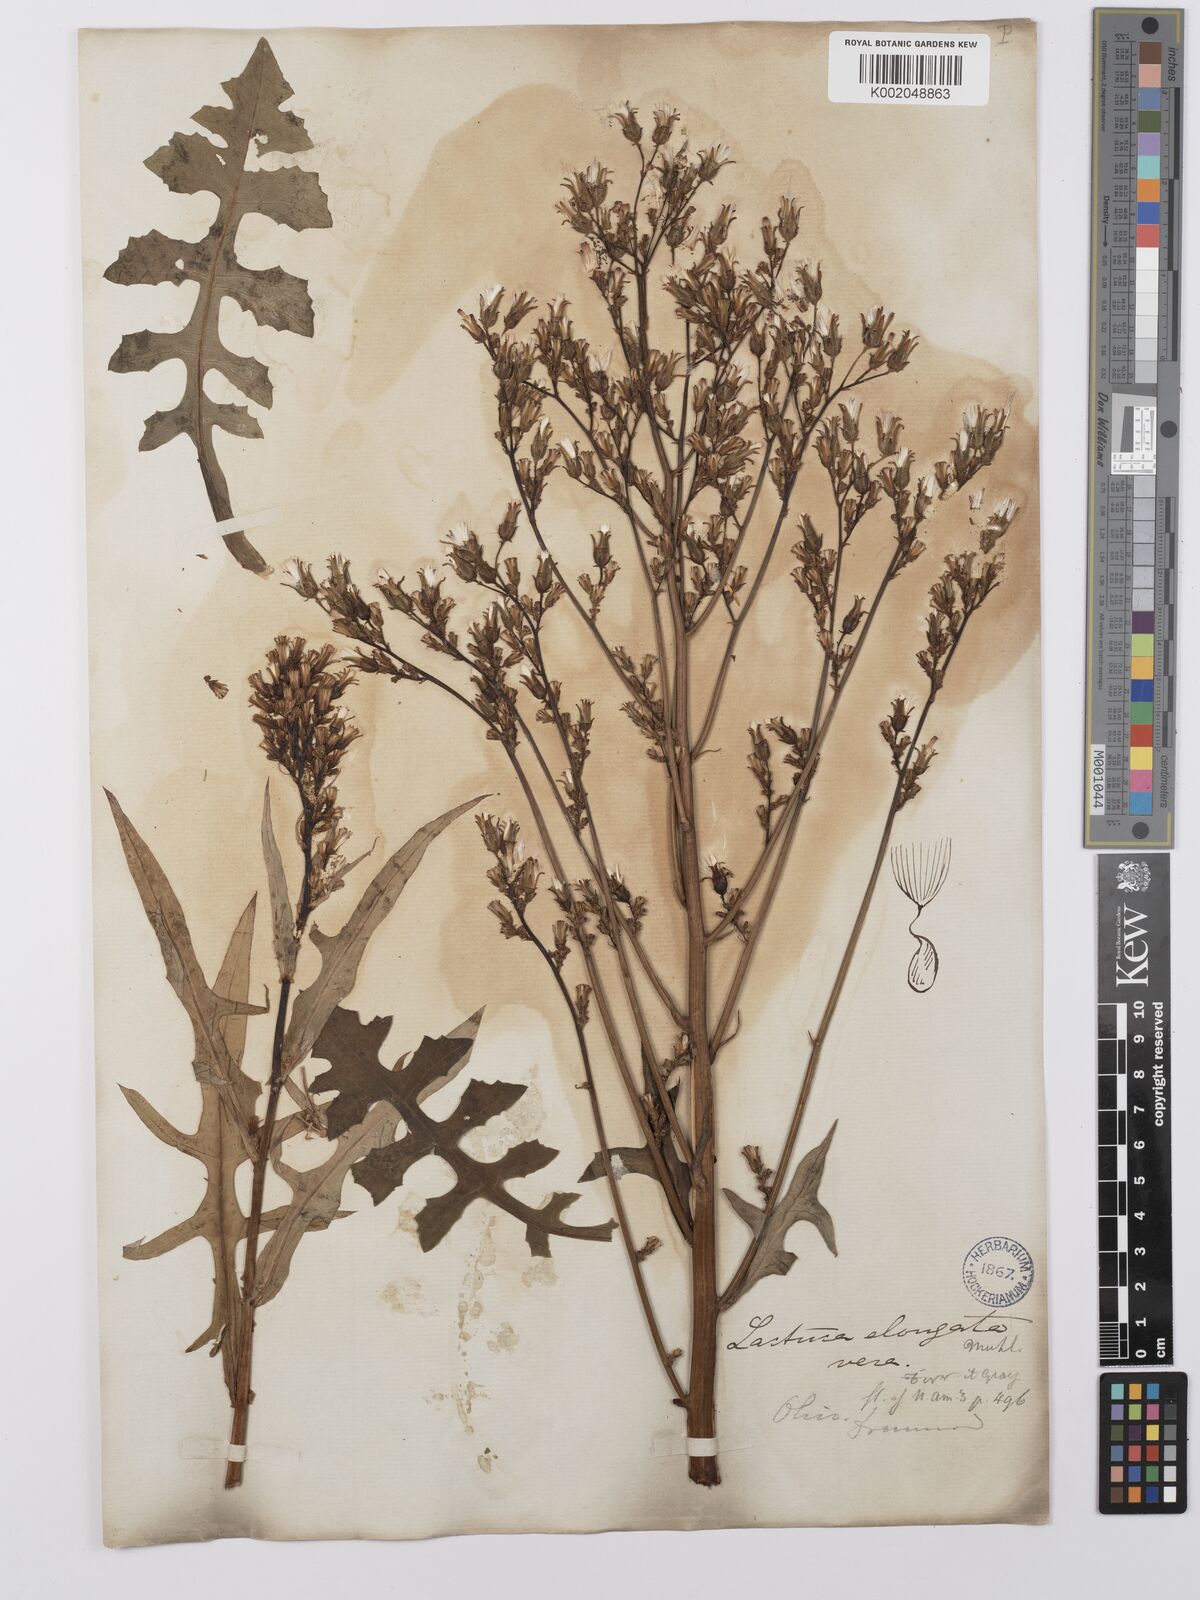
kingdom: Plantae
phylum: Tracheophyta
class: Magnoliopsida
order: Asterales
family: Asteraceae
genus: Lactuca
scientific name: Lactuca canadensis
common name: Canada lettuce
